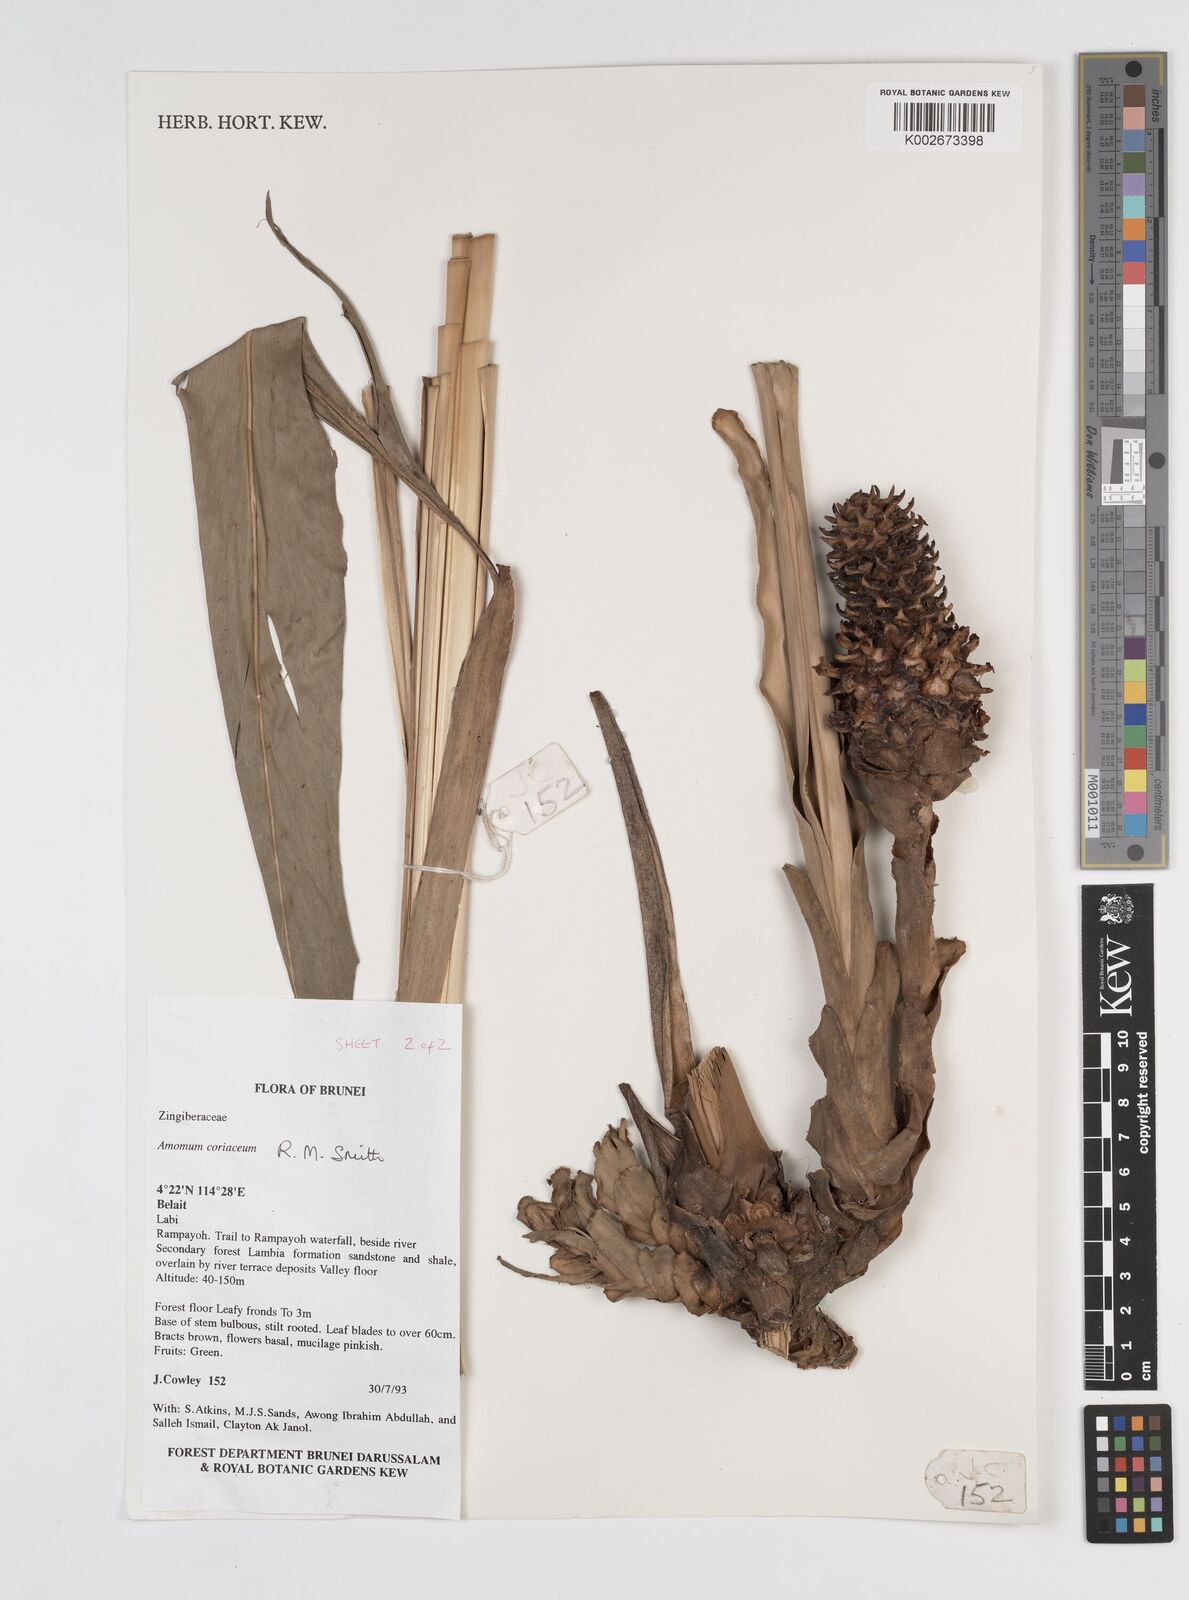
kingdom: Plantae
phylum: Tracheophyta
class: Liliopsida
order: Zingiberales
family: Zingiberaceae
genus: Conamomum
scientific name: Conamomum cylindrostachys
